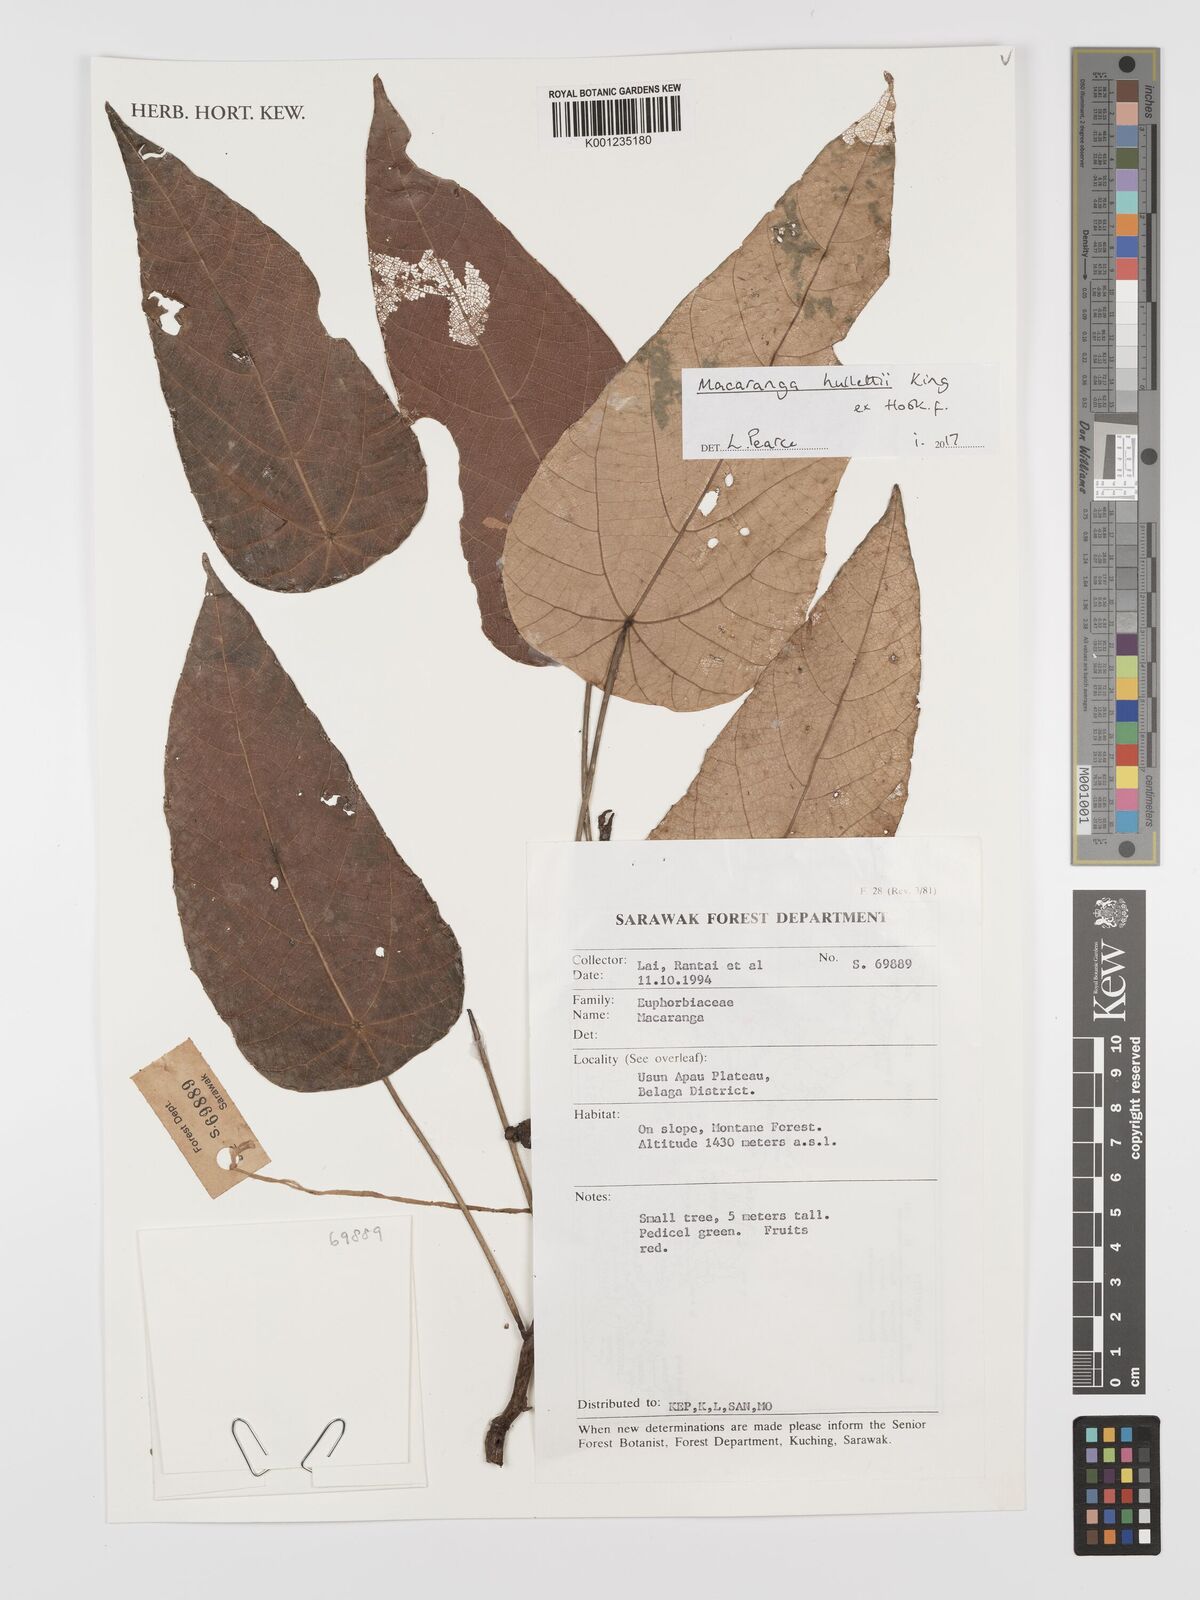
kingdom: Plantae
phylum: Tracheophyta
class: Magnoliopsida
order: Malpighiales
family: Euphorbiaceae
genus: Macaranga
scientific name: Macaranga hullettii
